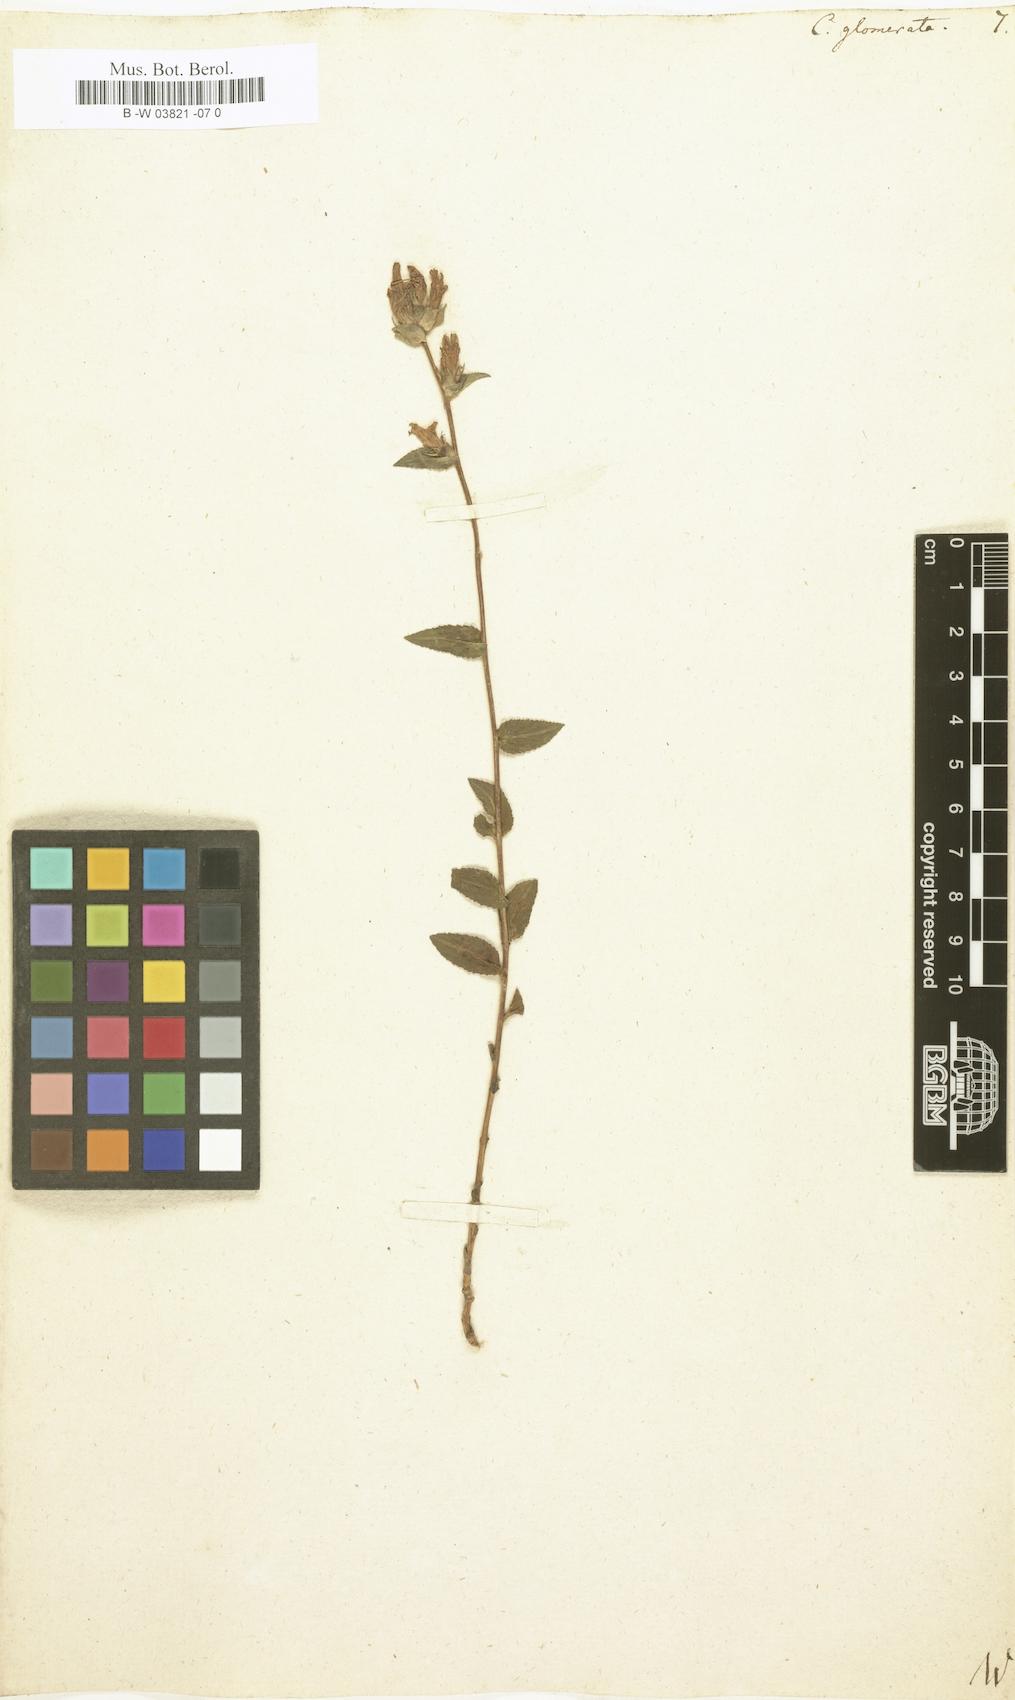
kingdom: Plantae
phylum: Tracheophyta
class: Magnoliopsida
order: Asterales
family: Campanulaceae
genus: Campanula
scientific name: Campanula glomerata
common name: Clustered bellflower
